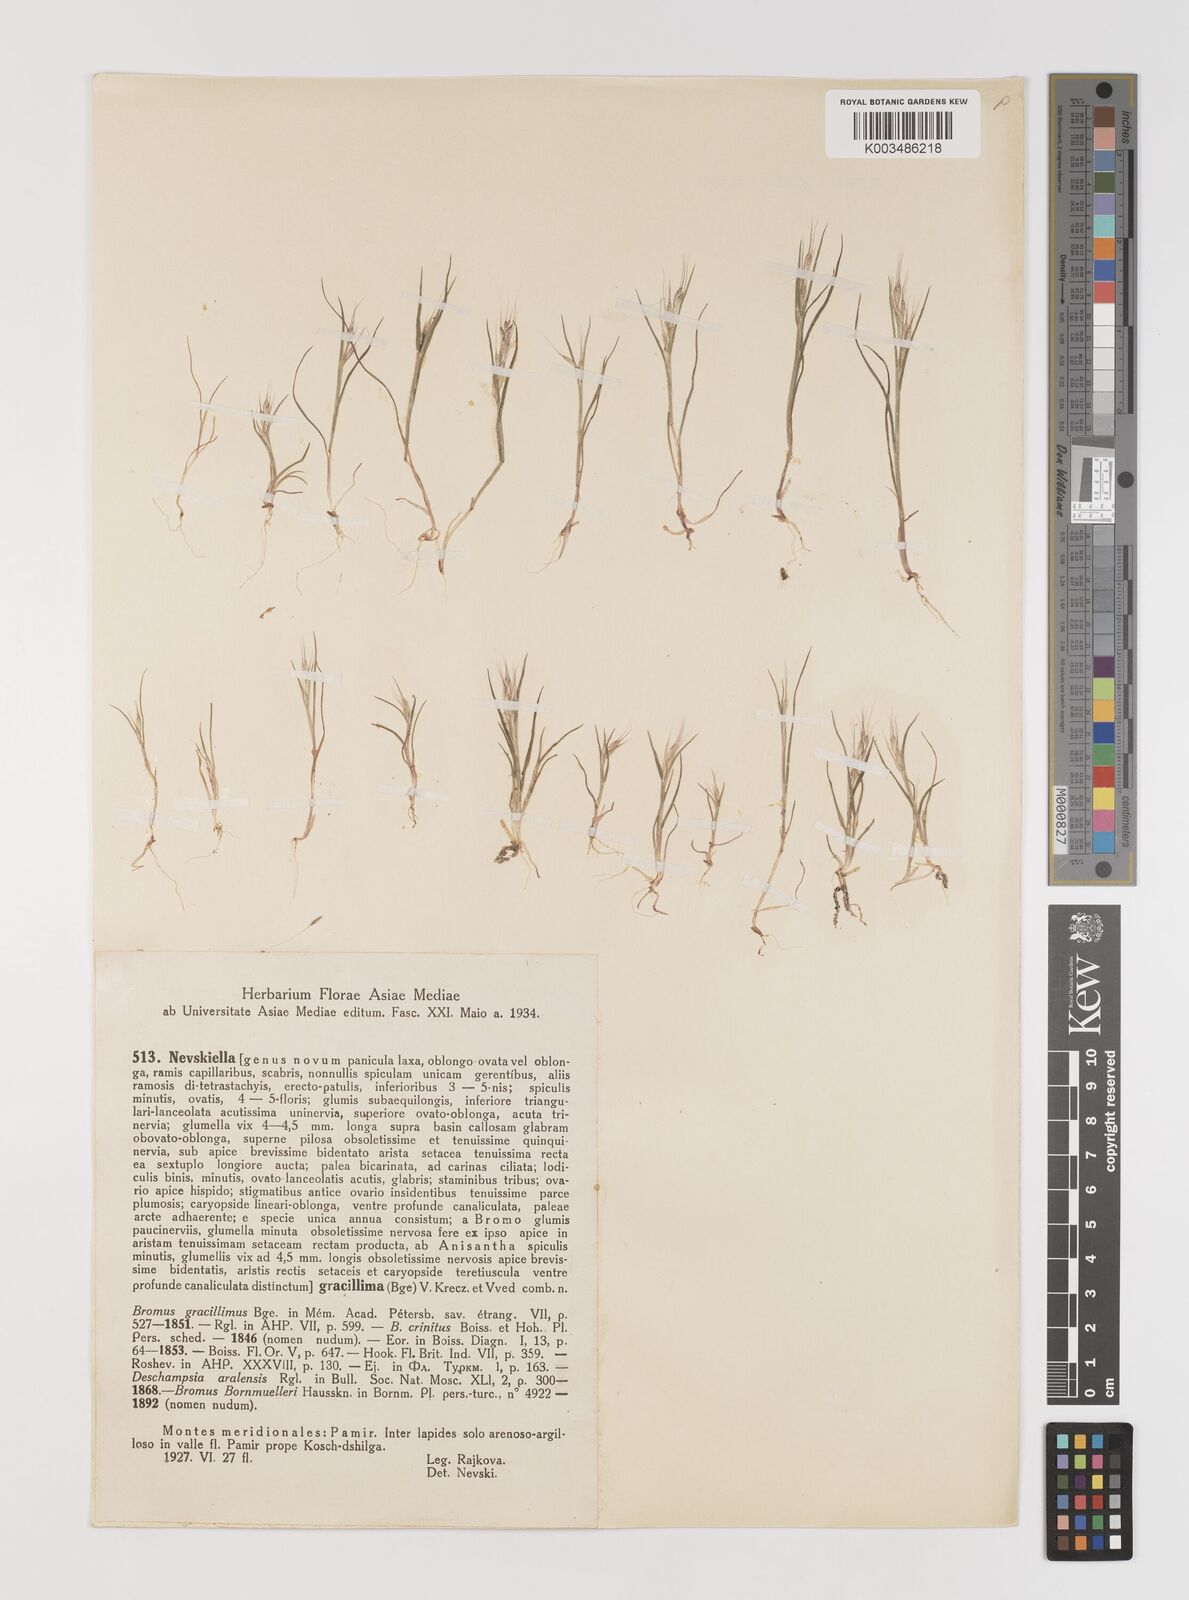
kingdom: Plantae
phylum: Tracheophyta
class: Liliopsida
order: Poales
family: Poaceae
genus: Bromus
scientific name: Bromus gracillimus
